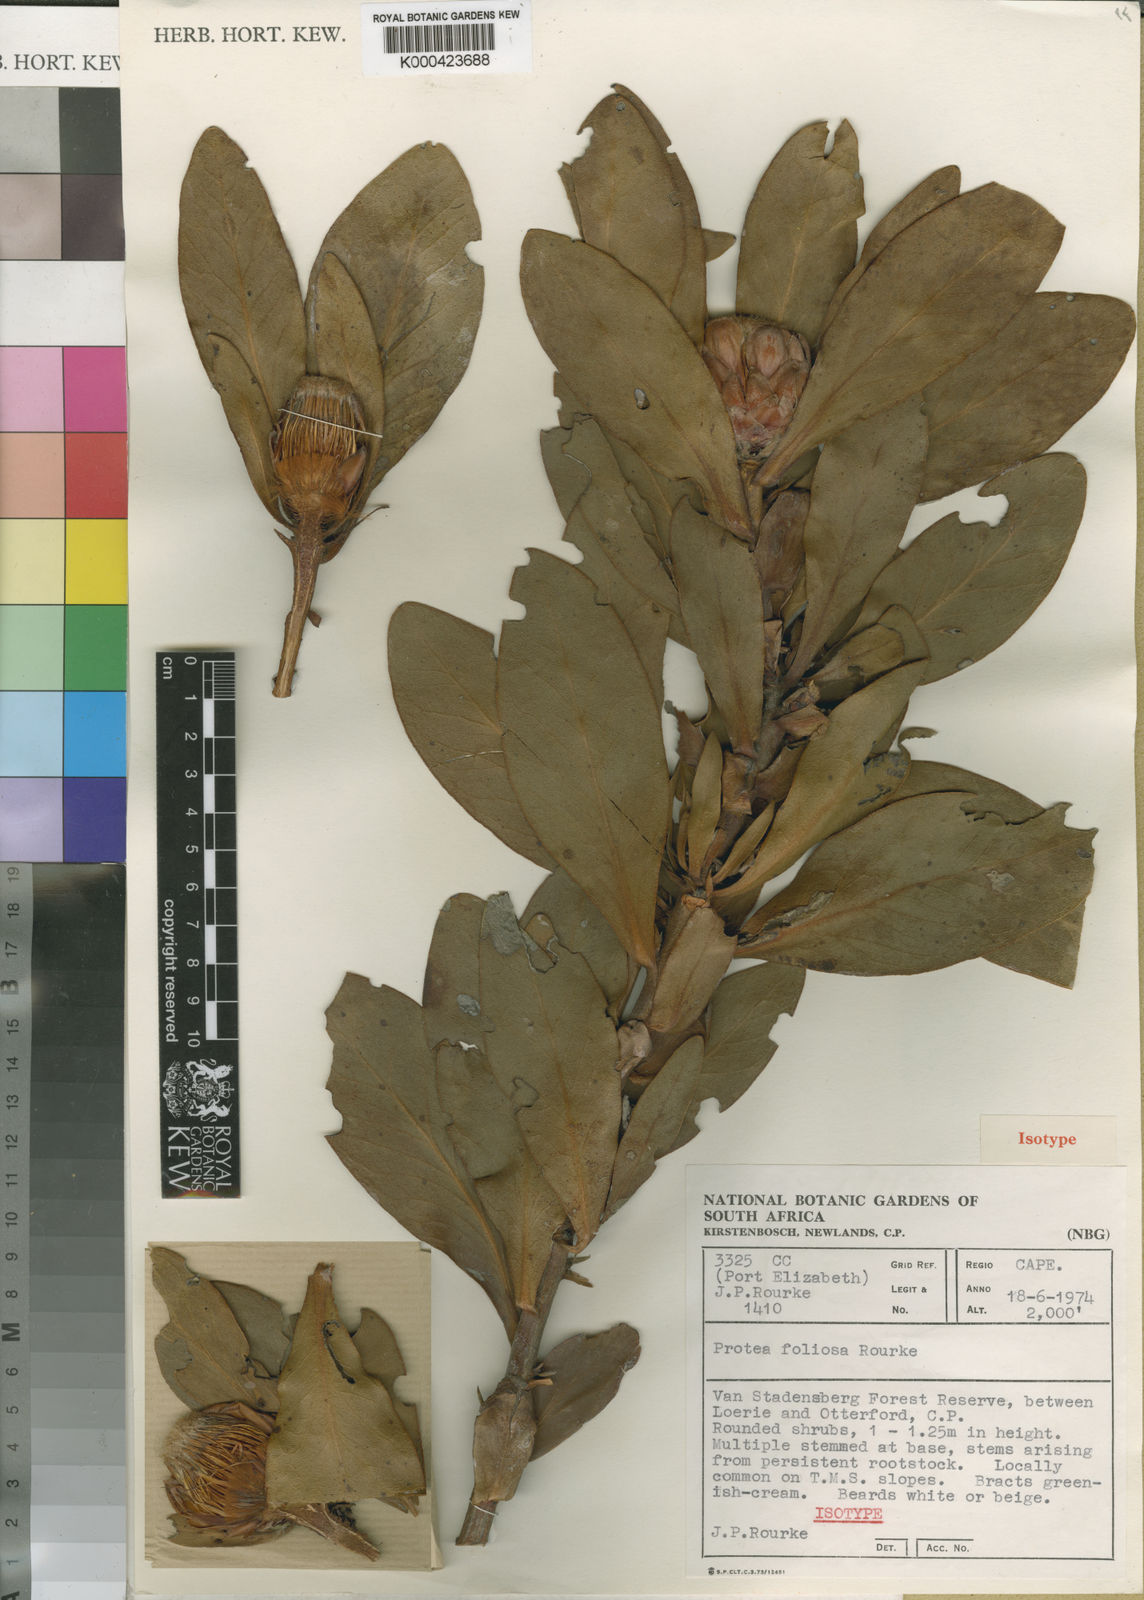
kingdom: Plantae
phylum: Tracheophyta
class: Magnoliopsida
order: Proteales
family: Proteaceae
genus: Protea
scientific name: Protea foliosa
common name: Leafy sugarbush
